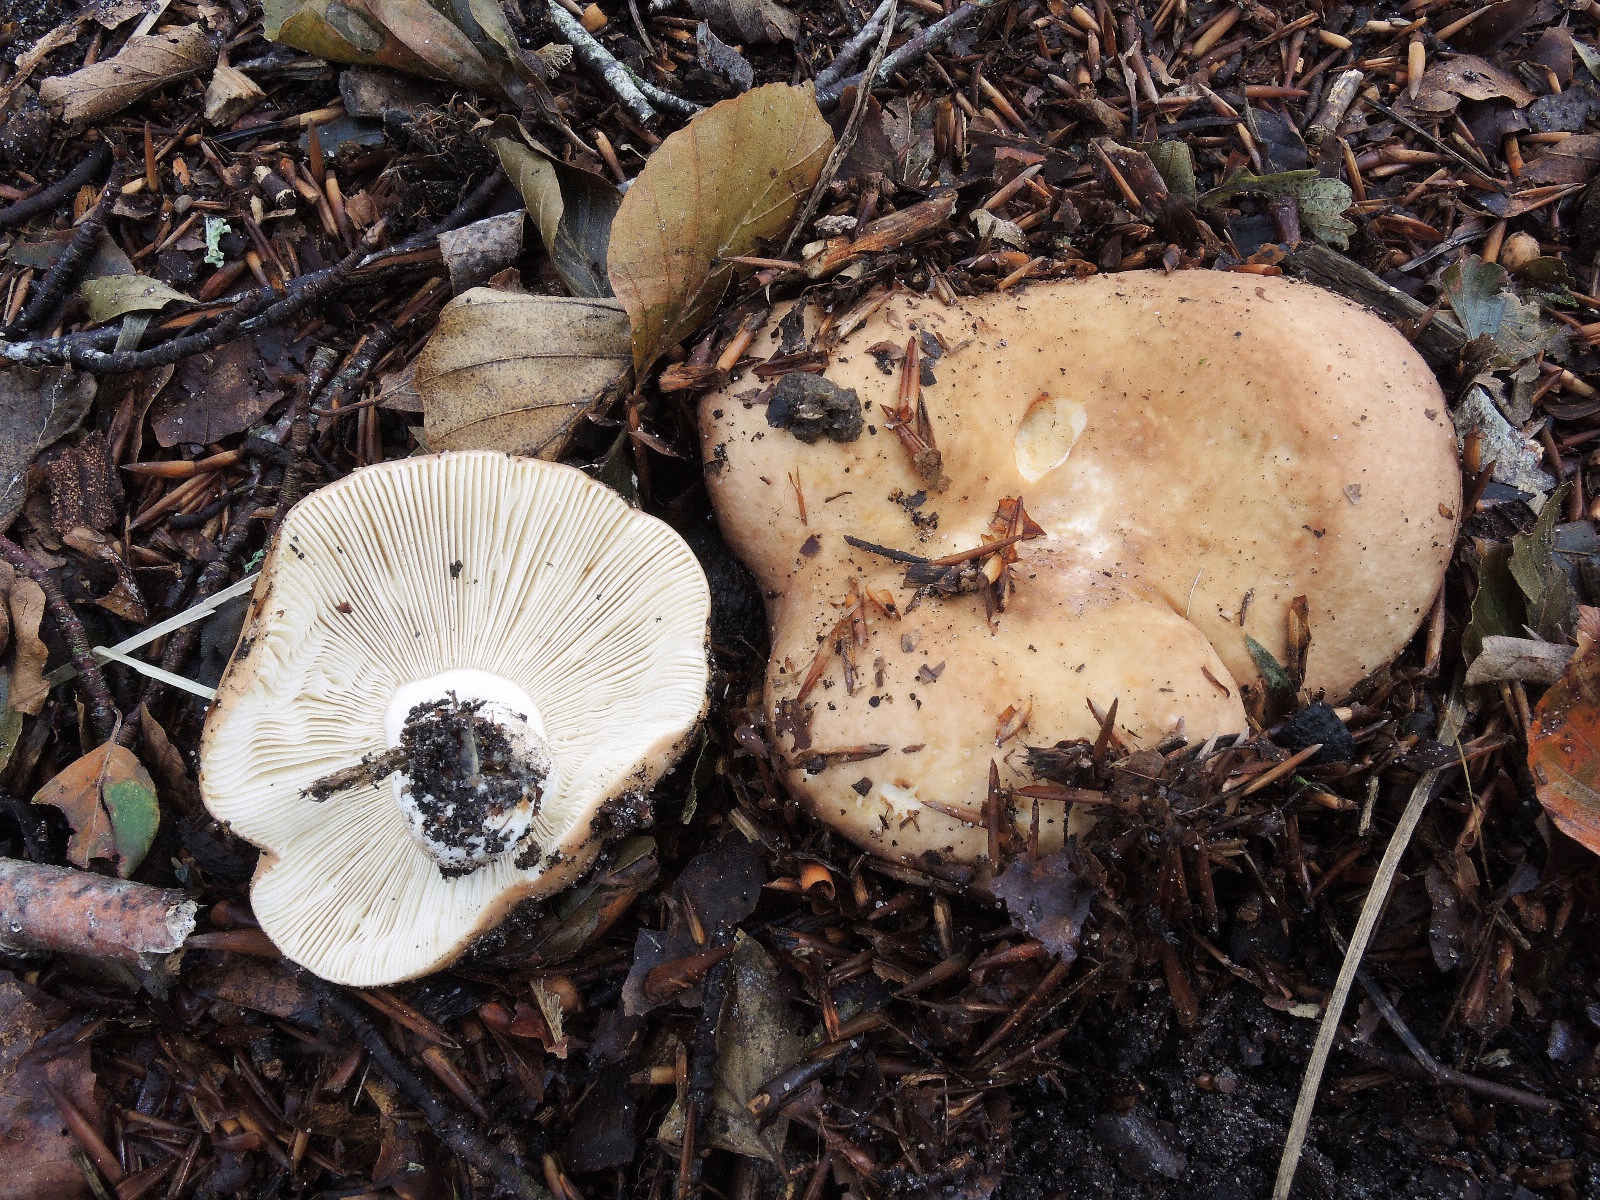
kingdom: Fungi
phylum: Basidiomycota
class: Agaricomycetes
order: Russulales
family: Russulaceae
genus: Russula
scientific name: Russula curtipes
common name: kortstokket skørhat
